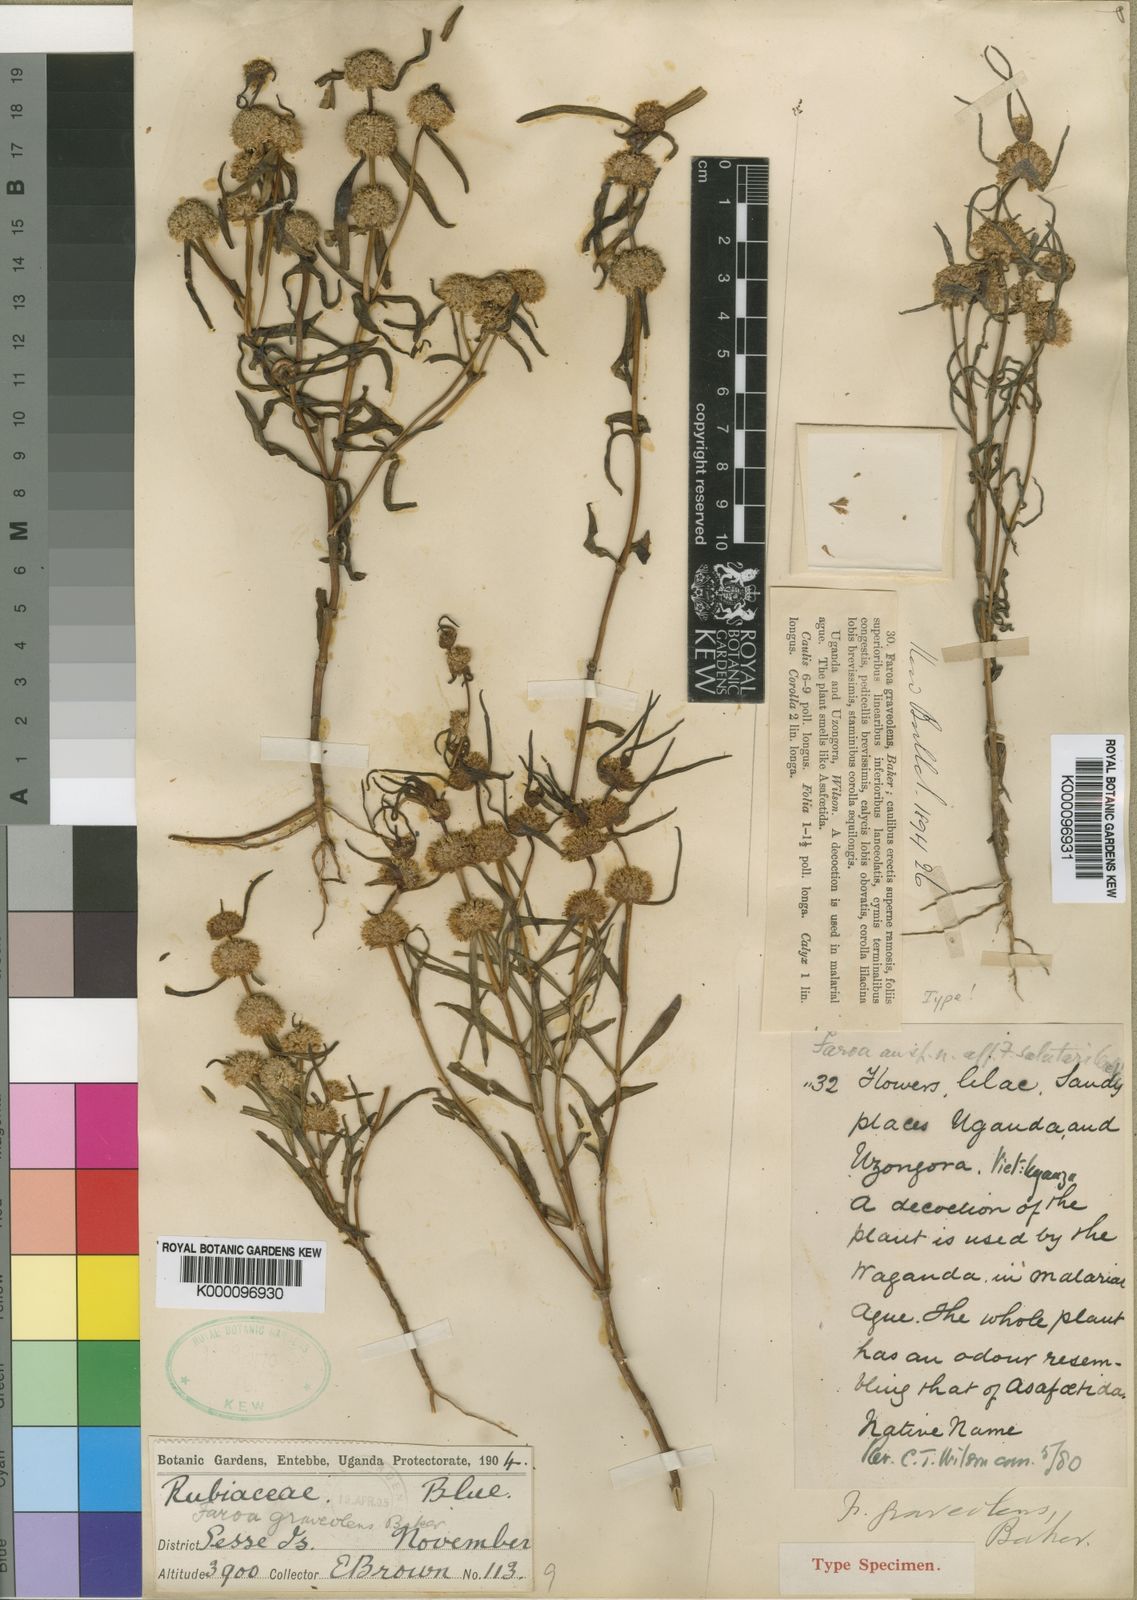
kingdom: Plantae
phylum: Tracheophyta
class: Magnoliopsida
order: Gentianales
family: Gentianaceae
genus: Faroa
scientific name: Faroa graveolens
